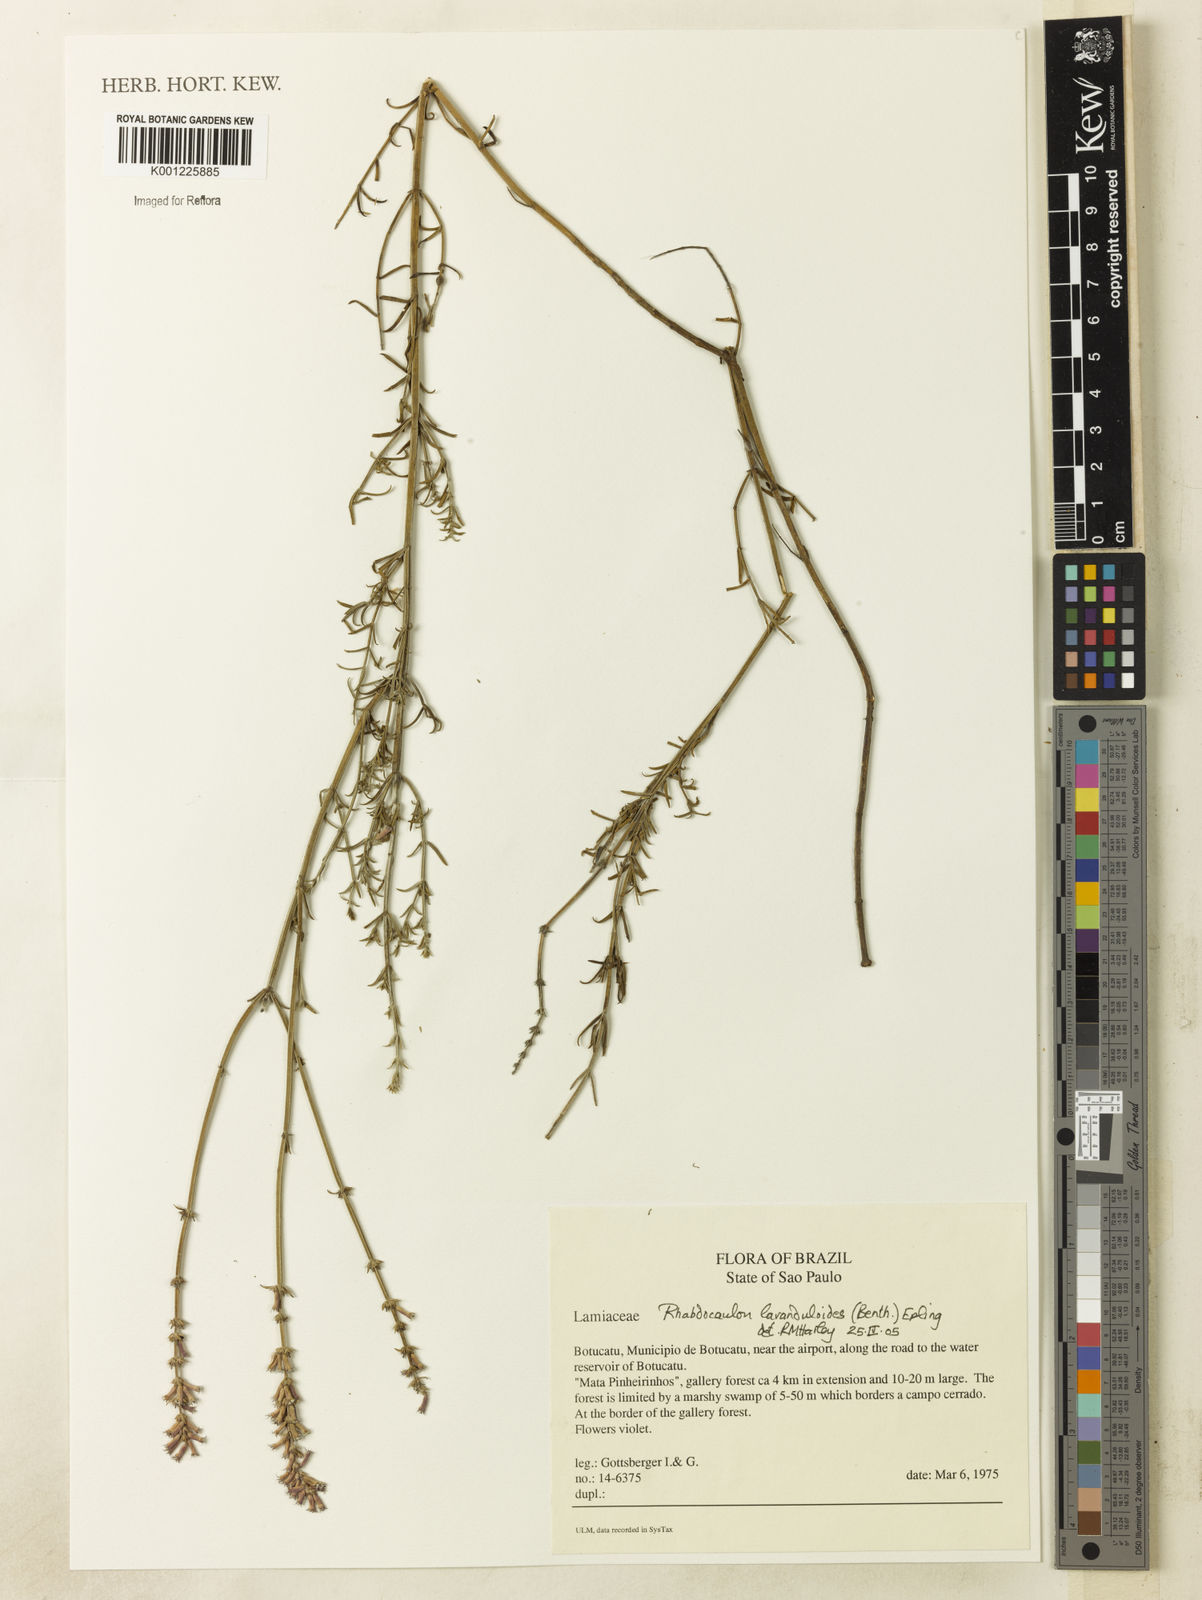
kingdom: Plantae
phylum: Tracheophyta
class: Magnoliopsida
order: Lamiales
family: Lamiaceae
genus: Rhabdocaulon
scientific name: Rhabdocaulon lavanduloides
